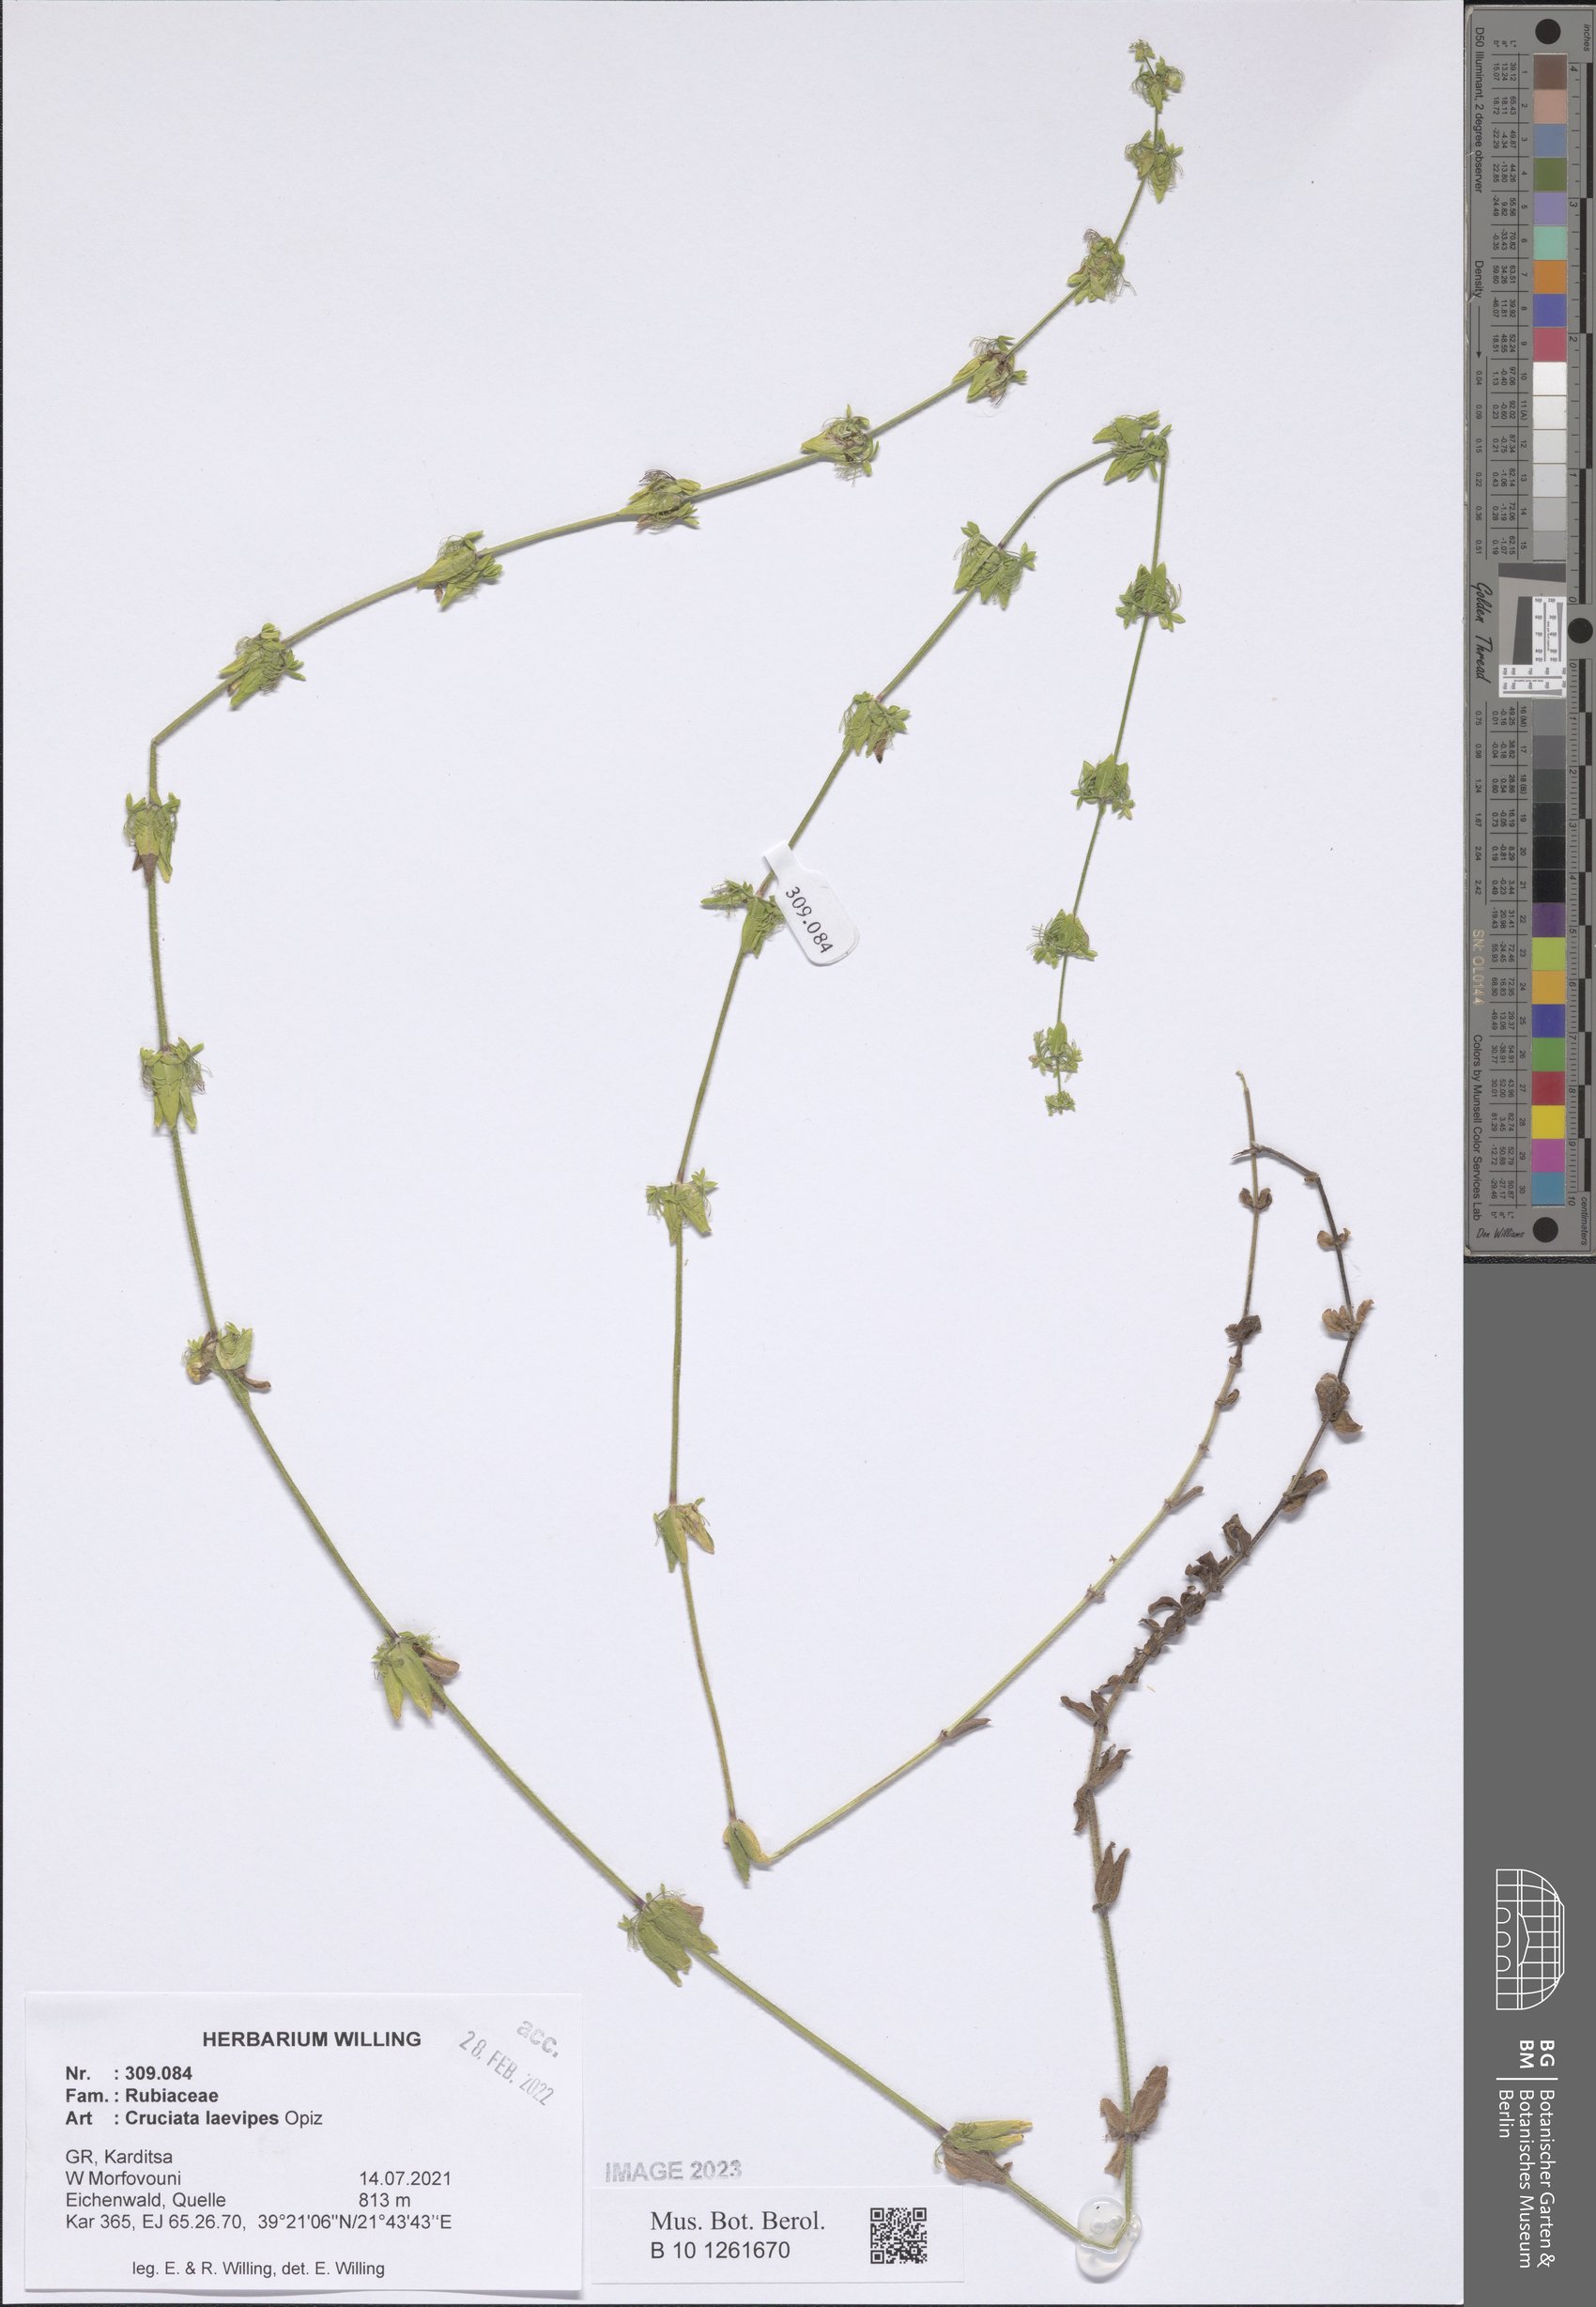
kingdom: Plantae
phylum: Tracheophyta
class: Magnoliopsida
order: Gentianales
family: Rubiaceae
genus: Cruciata
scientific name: Cruciata laevipes
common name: Crosswort
